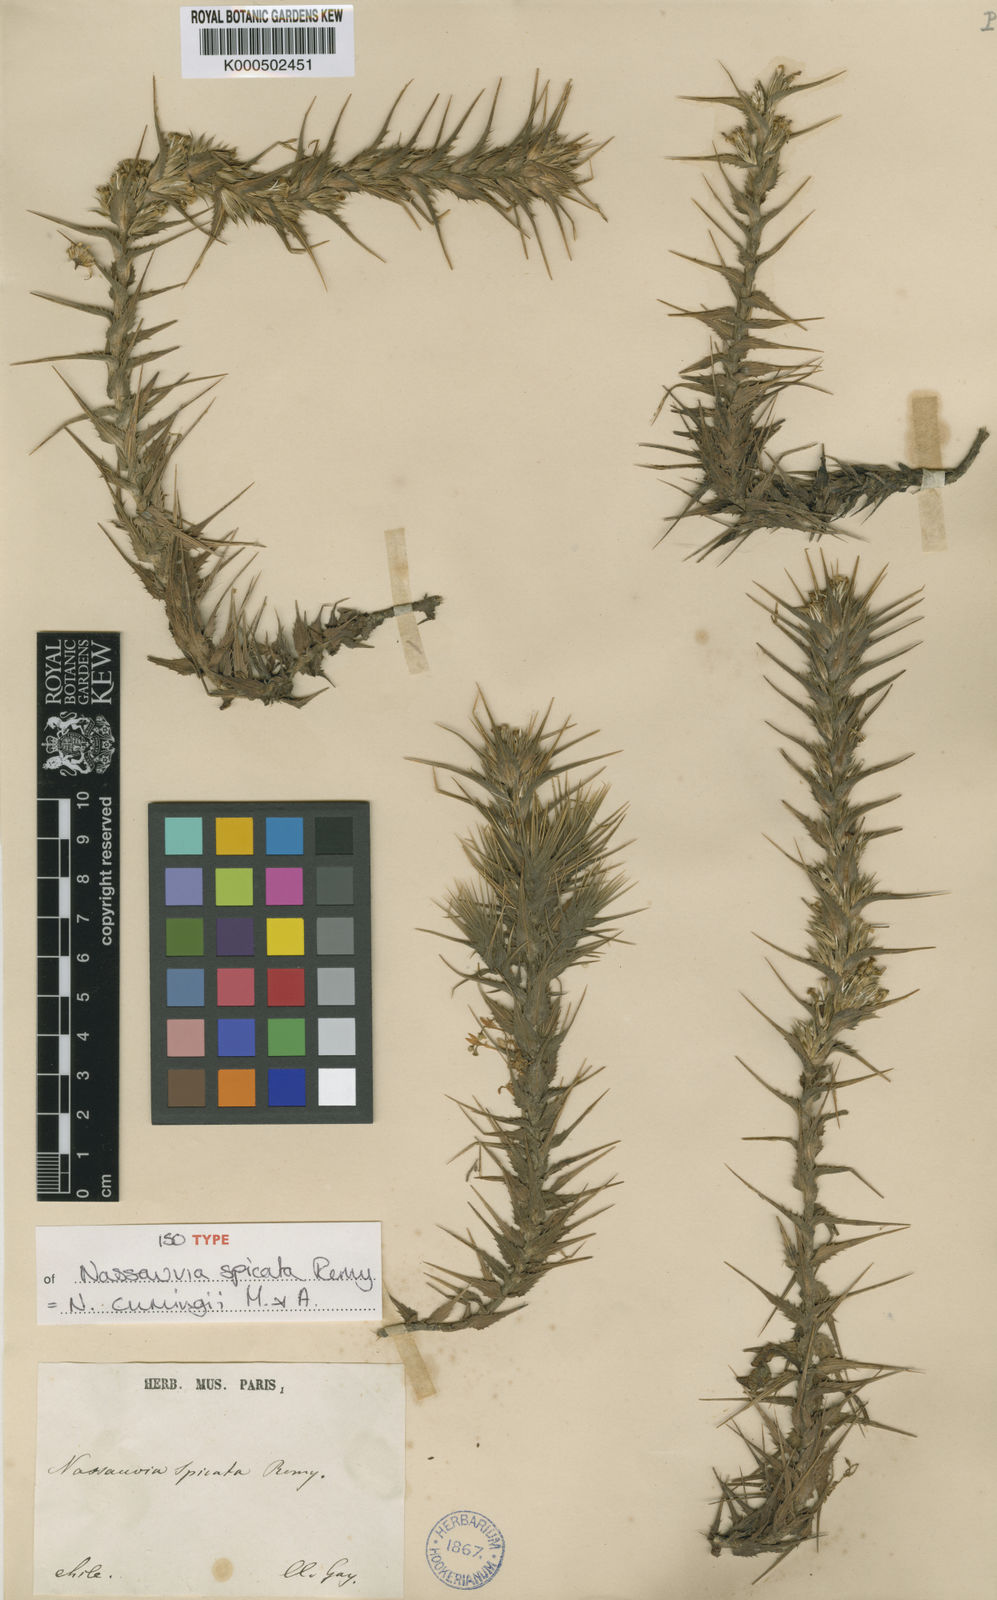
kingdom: Plantae
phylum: Tracheophyta
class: Magnoliopsida
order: Asterales
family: Asteraceae
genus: Nassauvia
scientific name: Nassauvia cumingii
